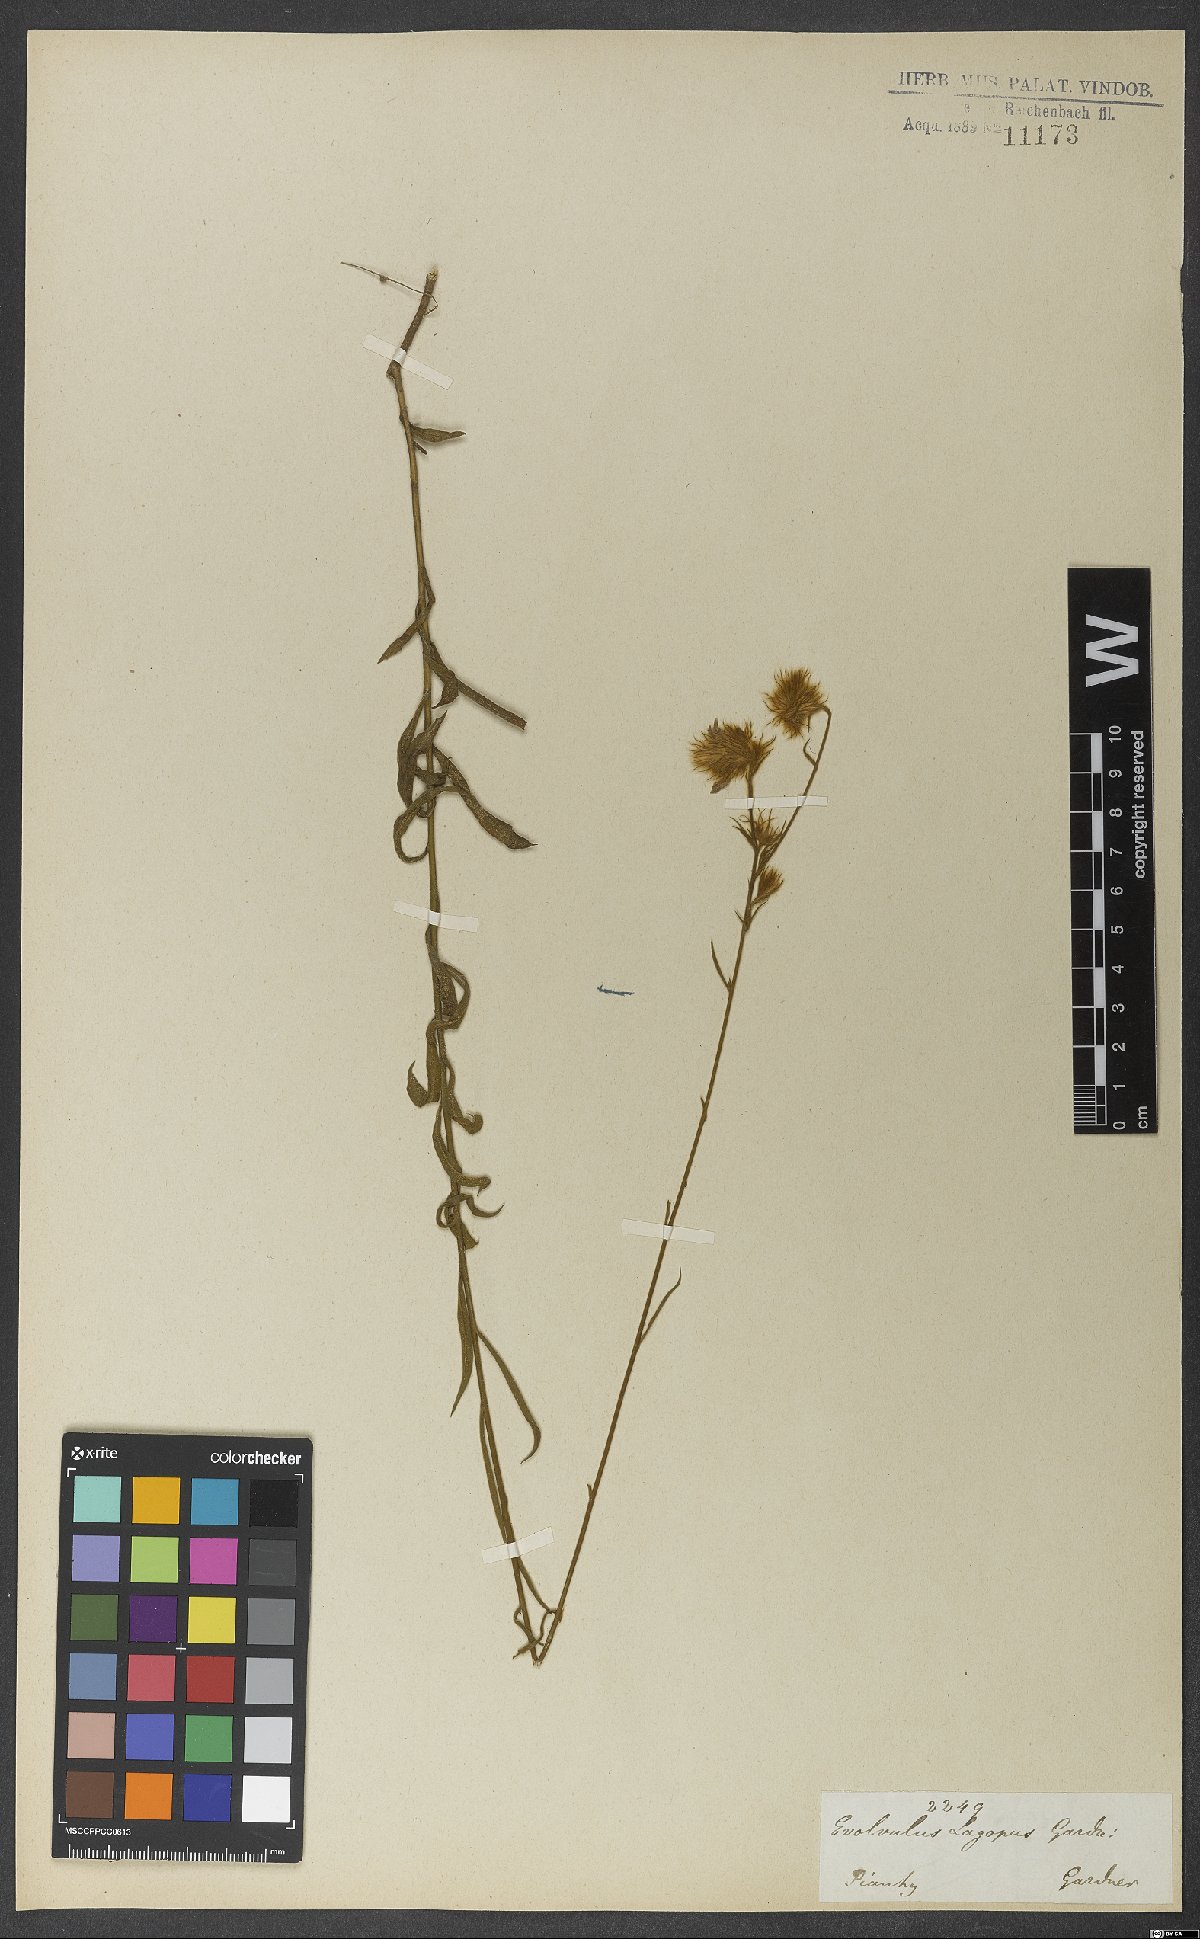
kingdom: Plantae
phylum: Tracheophyta
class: Magnoliopsida
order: Solanales
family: Convolvulaceae
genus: Evolvulus
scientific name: Evolvulus lagopus
